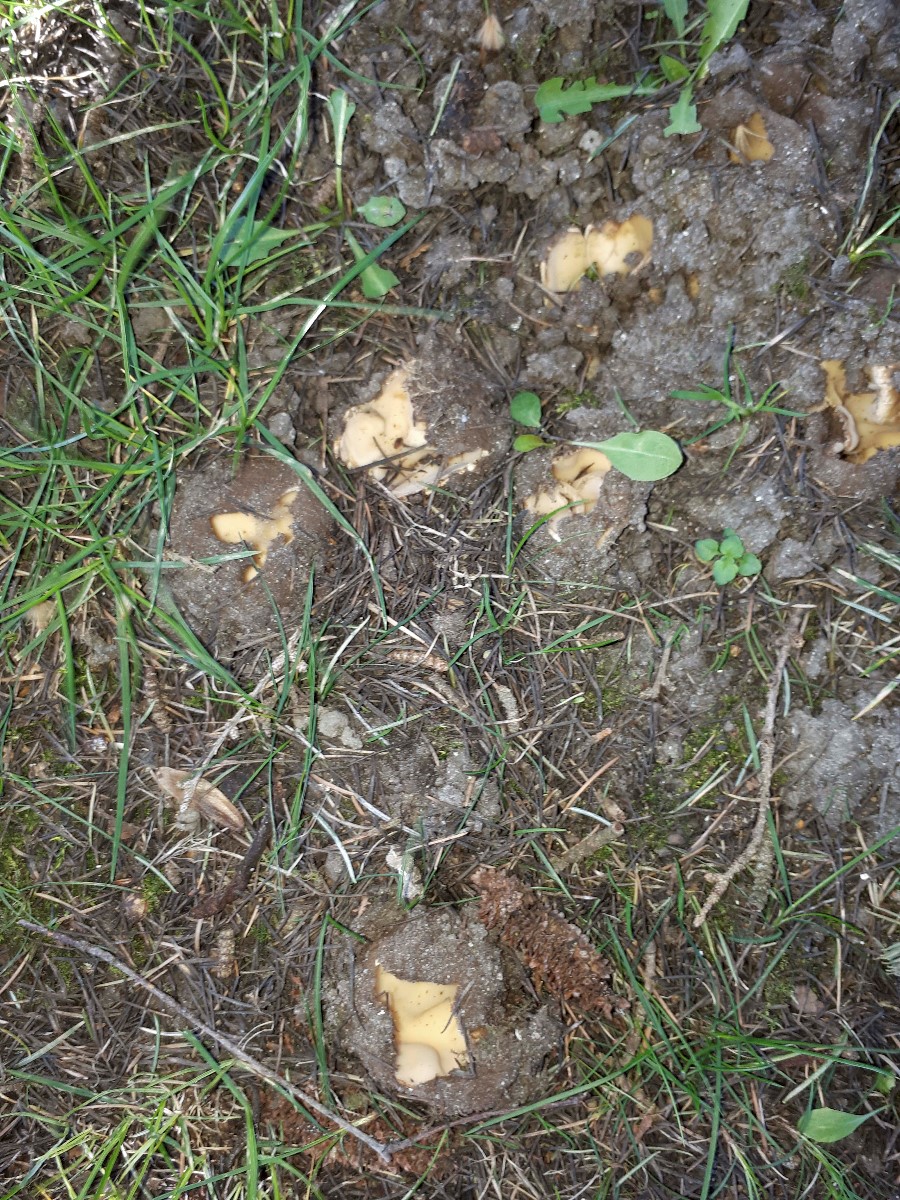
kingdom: Fungi
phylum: Ascomycota
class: Pezizomycetes
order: Pezizales
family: Pyronemataceae
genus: Geopora
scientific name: Geopora sumneriana
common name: vår-jordbæger
